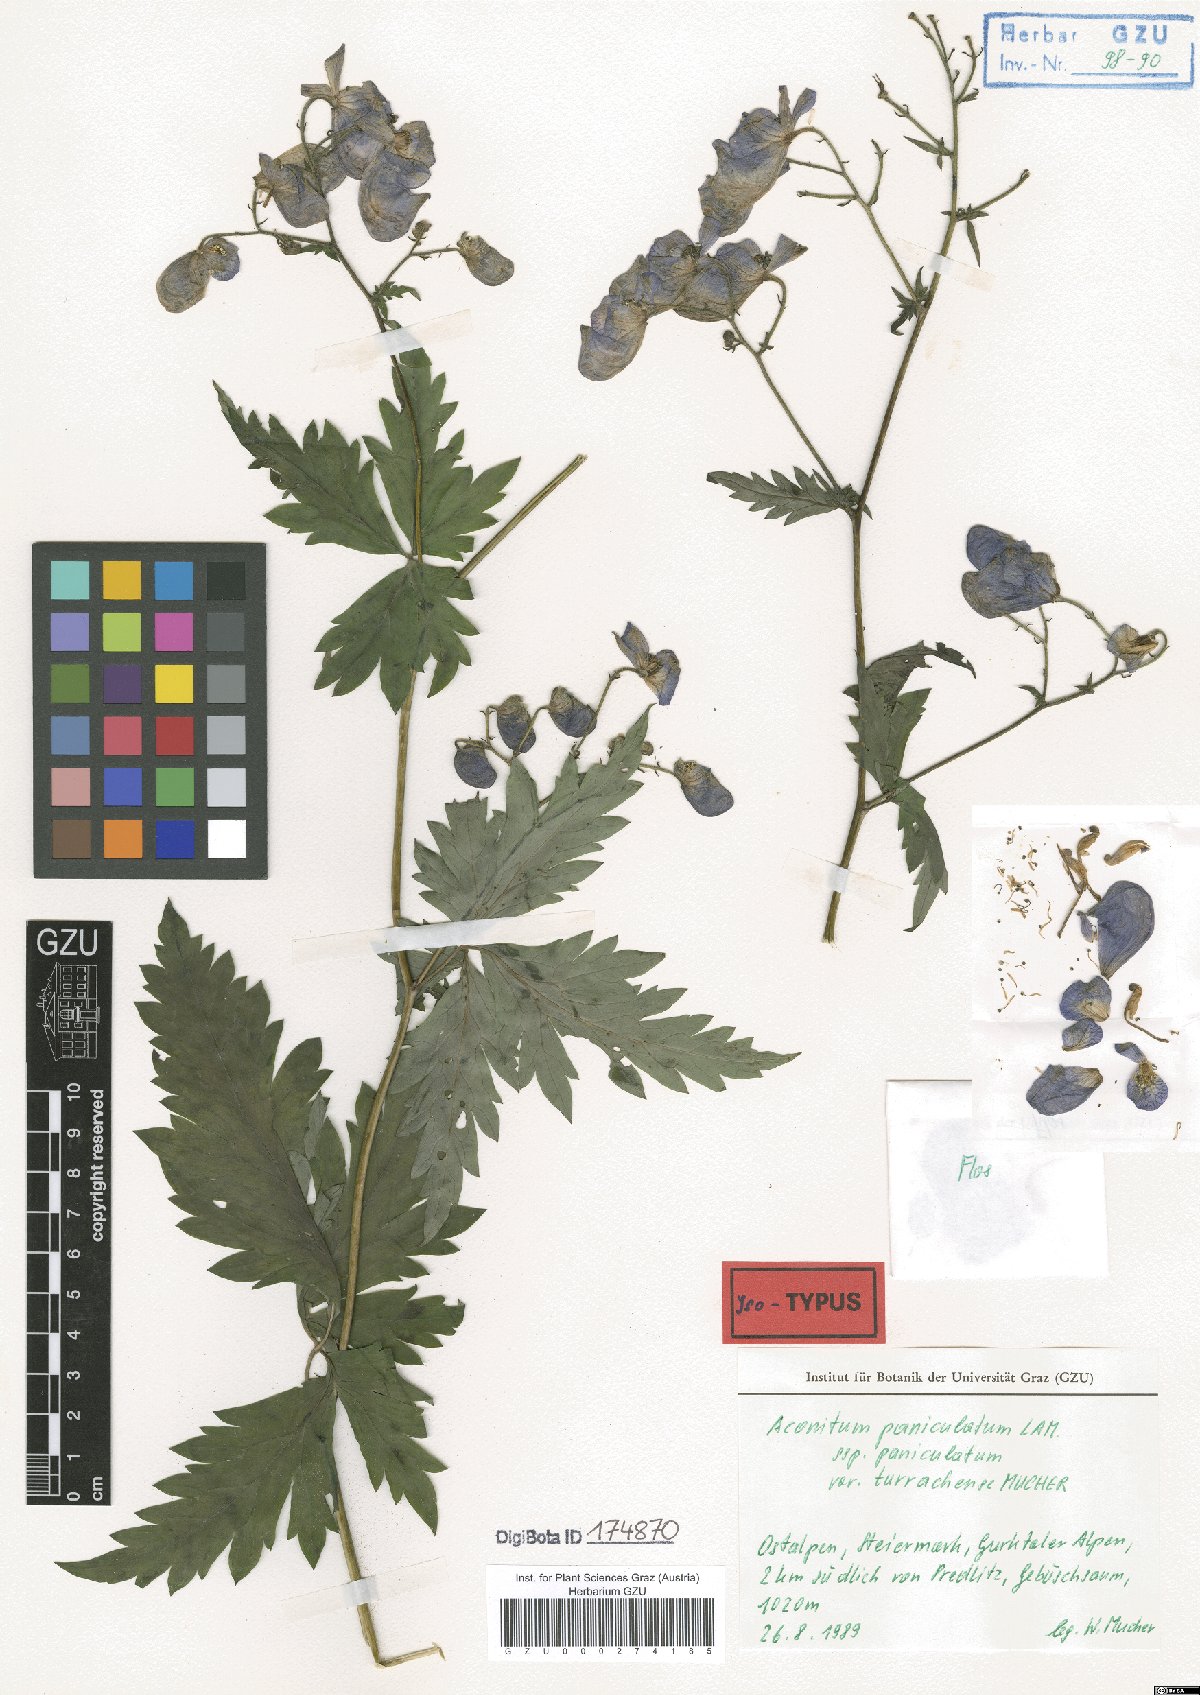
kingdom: Plantae
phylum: Tracheophyta
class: Magnoliopsida
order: Ranunculales
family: Ranunculaceae
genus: Aconitum
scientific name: Aconitum degenii
